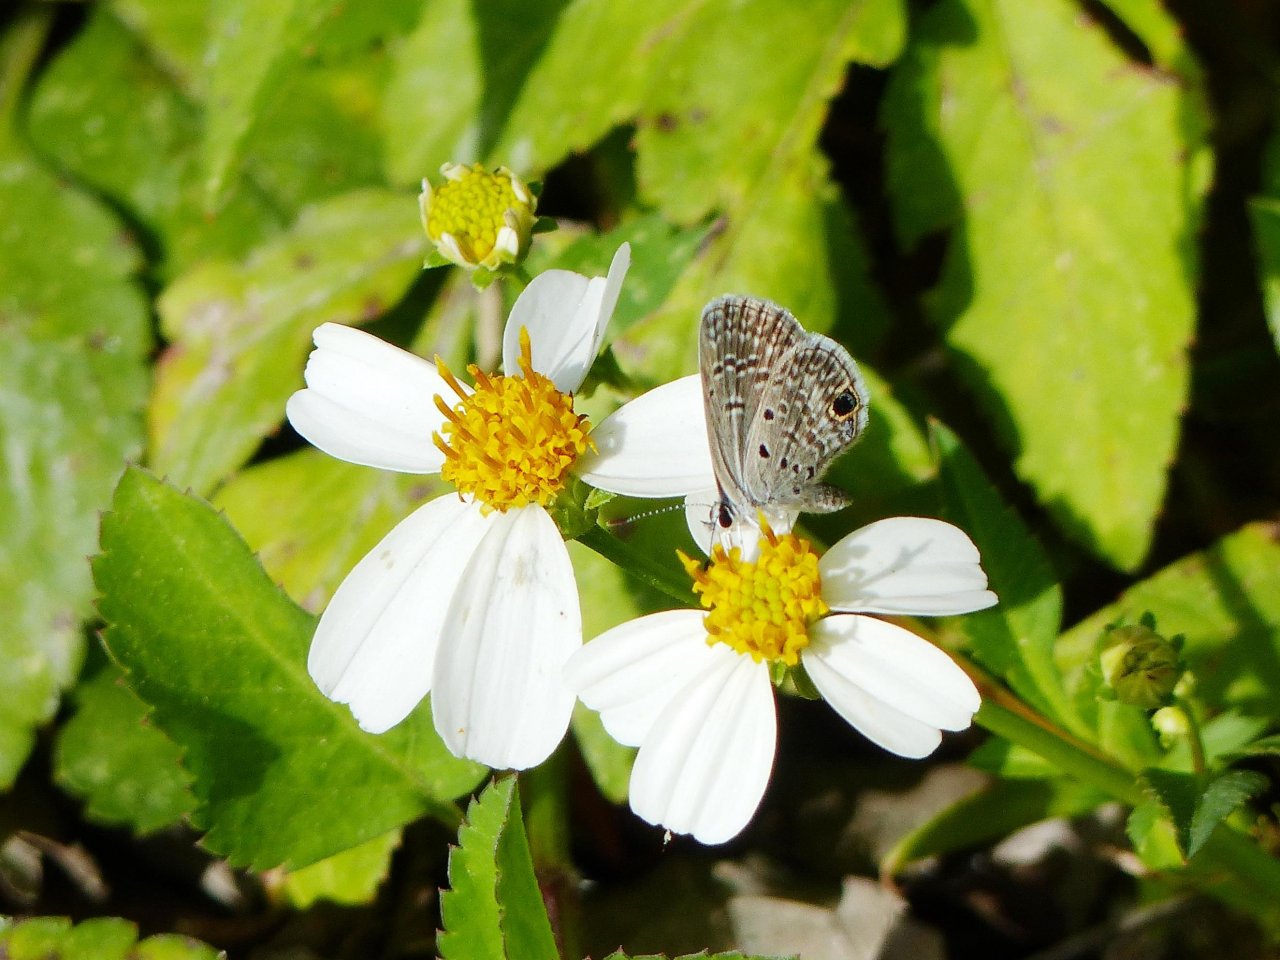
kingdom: Animalia
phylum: Arthropoda
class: Insecta
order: Lepidoptera
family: Lycaenidae
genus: Hemiargus
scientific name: Hemiargus ceraunus
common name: Ceraunus Blue
